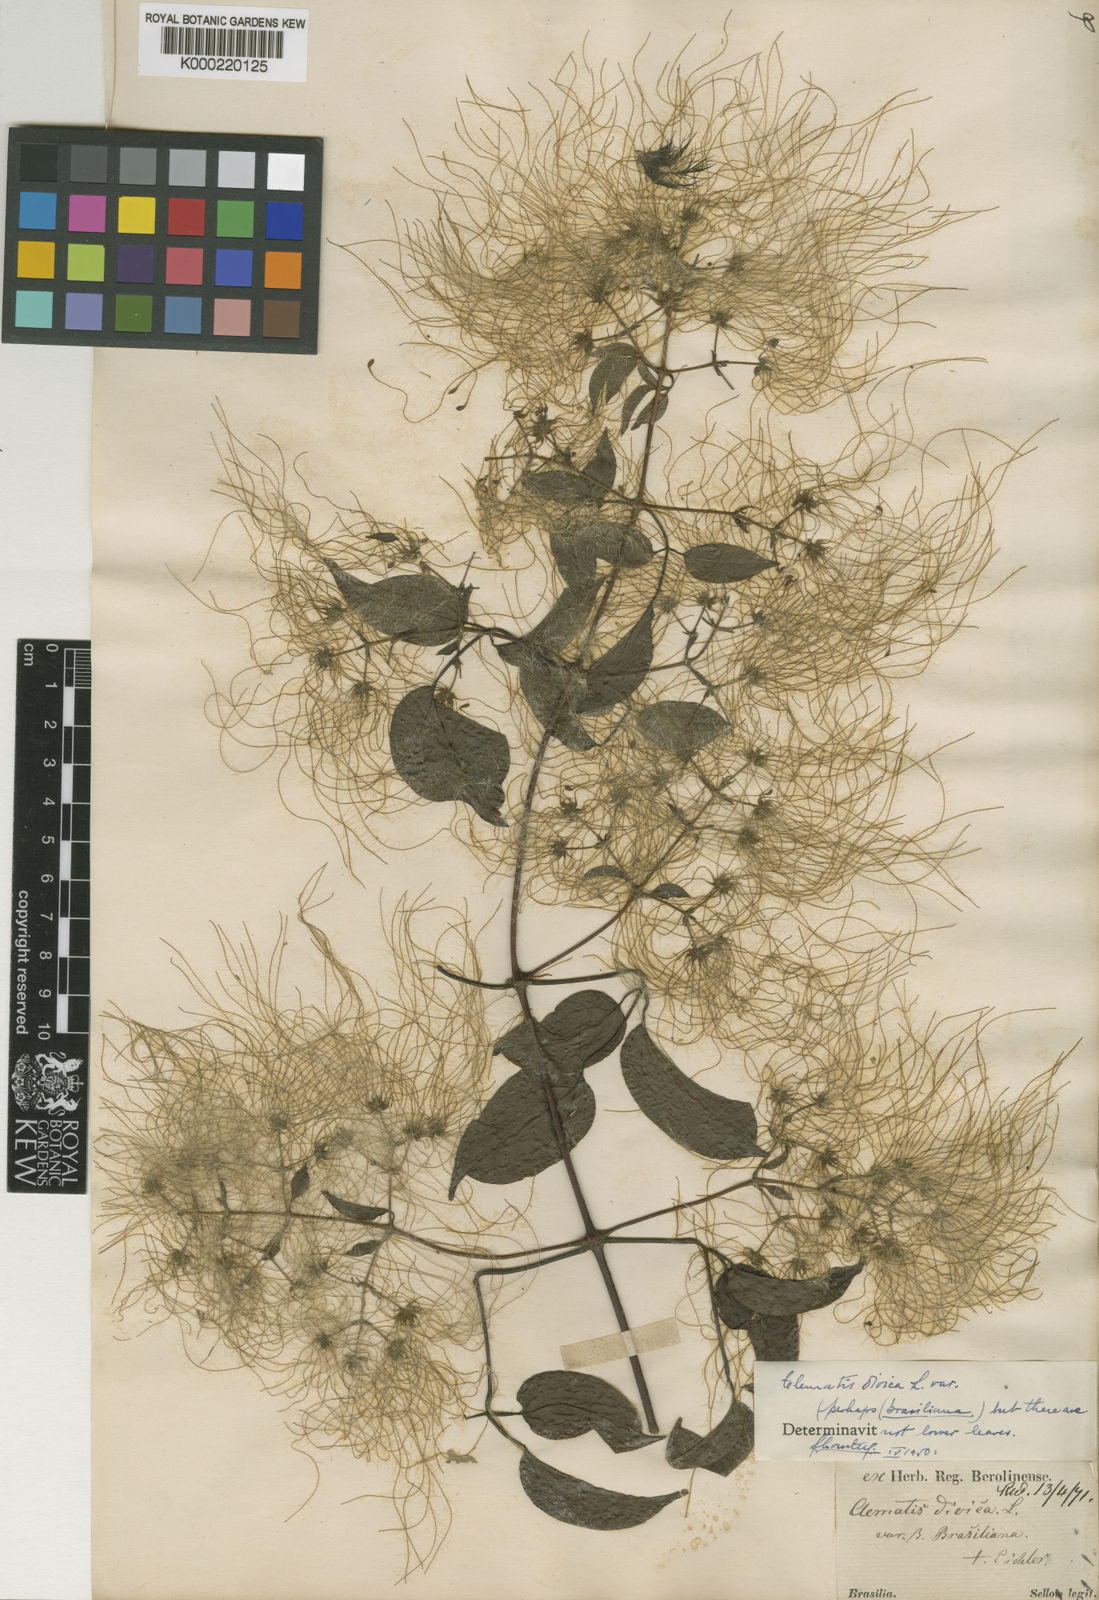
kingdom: Plantae
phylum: Tracheophyta
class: Magnoliopsida
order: Ranunculales
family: Ranunculaceae
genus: Clematis
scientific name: Clematis brasiliana
